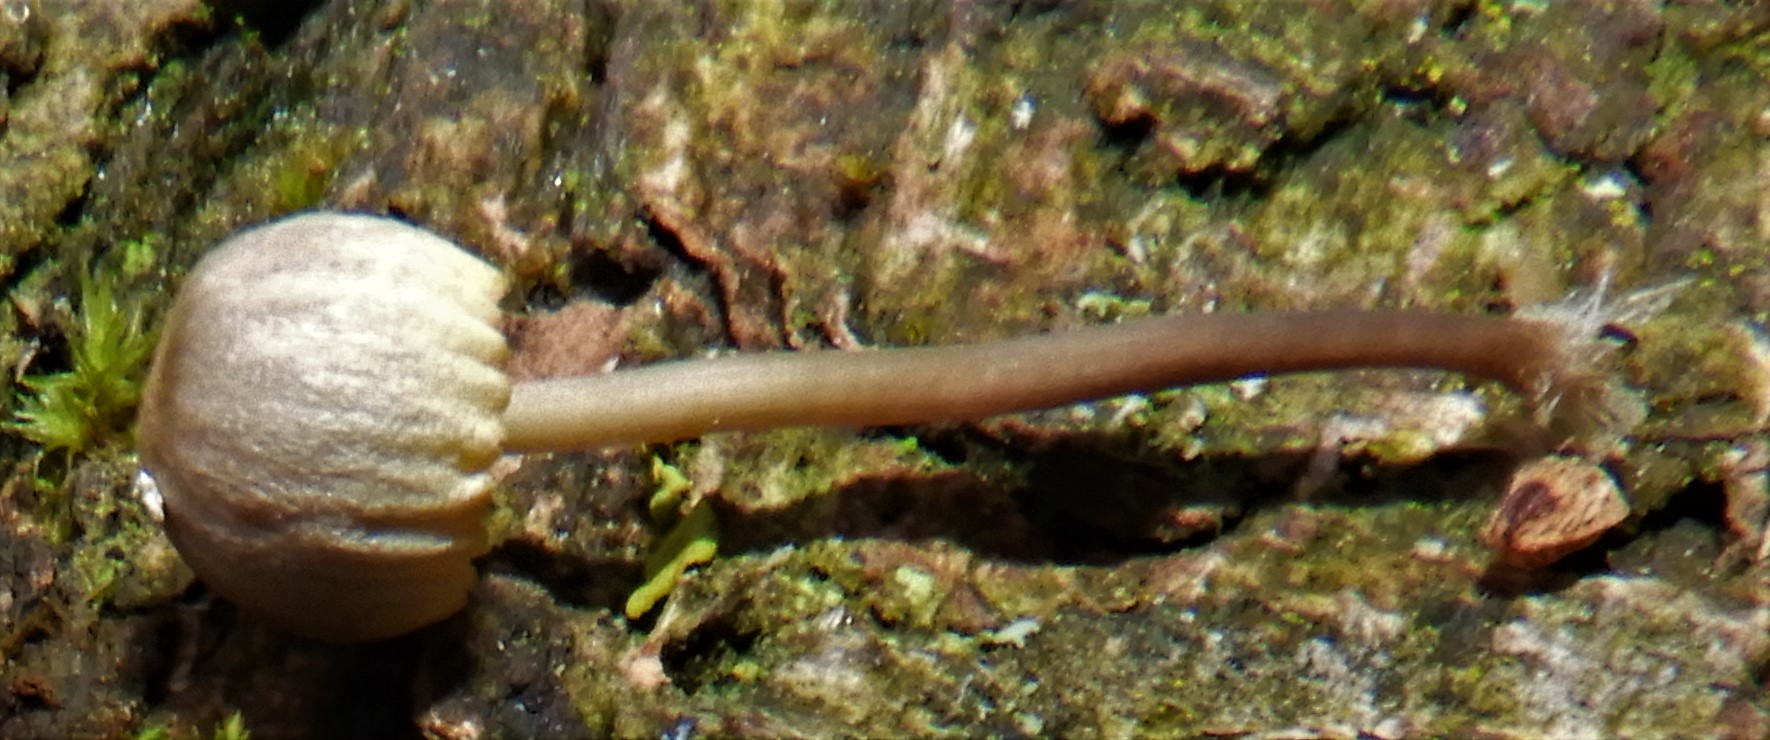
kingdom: Fungi
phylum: Basidiomycota
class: Agaricomycetes
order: Agaricales
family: Mycenaceae
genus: Mycena
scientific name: Mycena
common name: huesvamp
